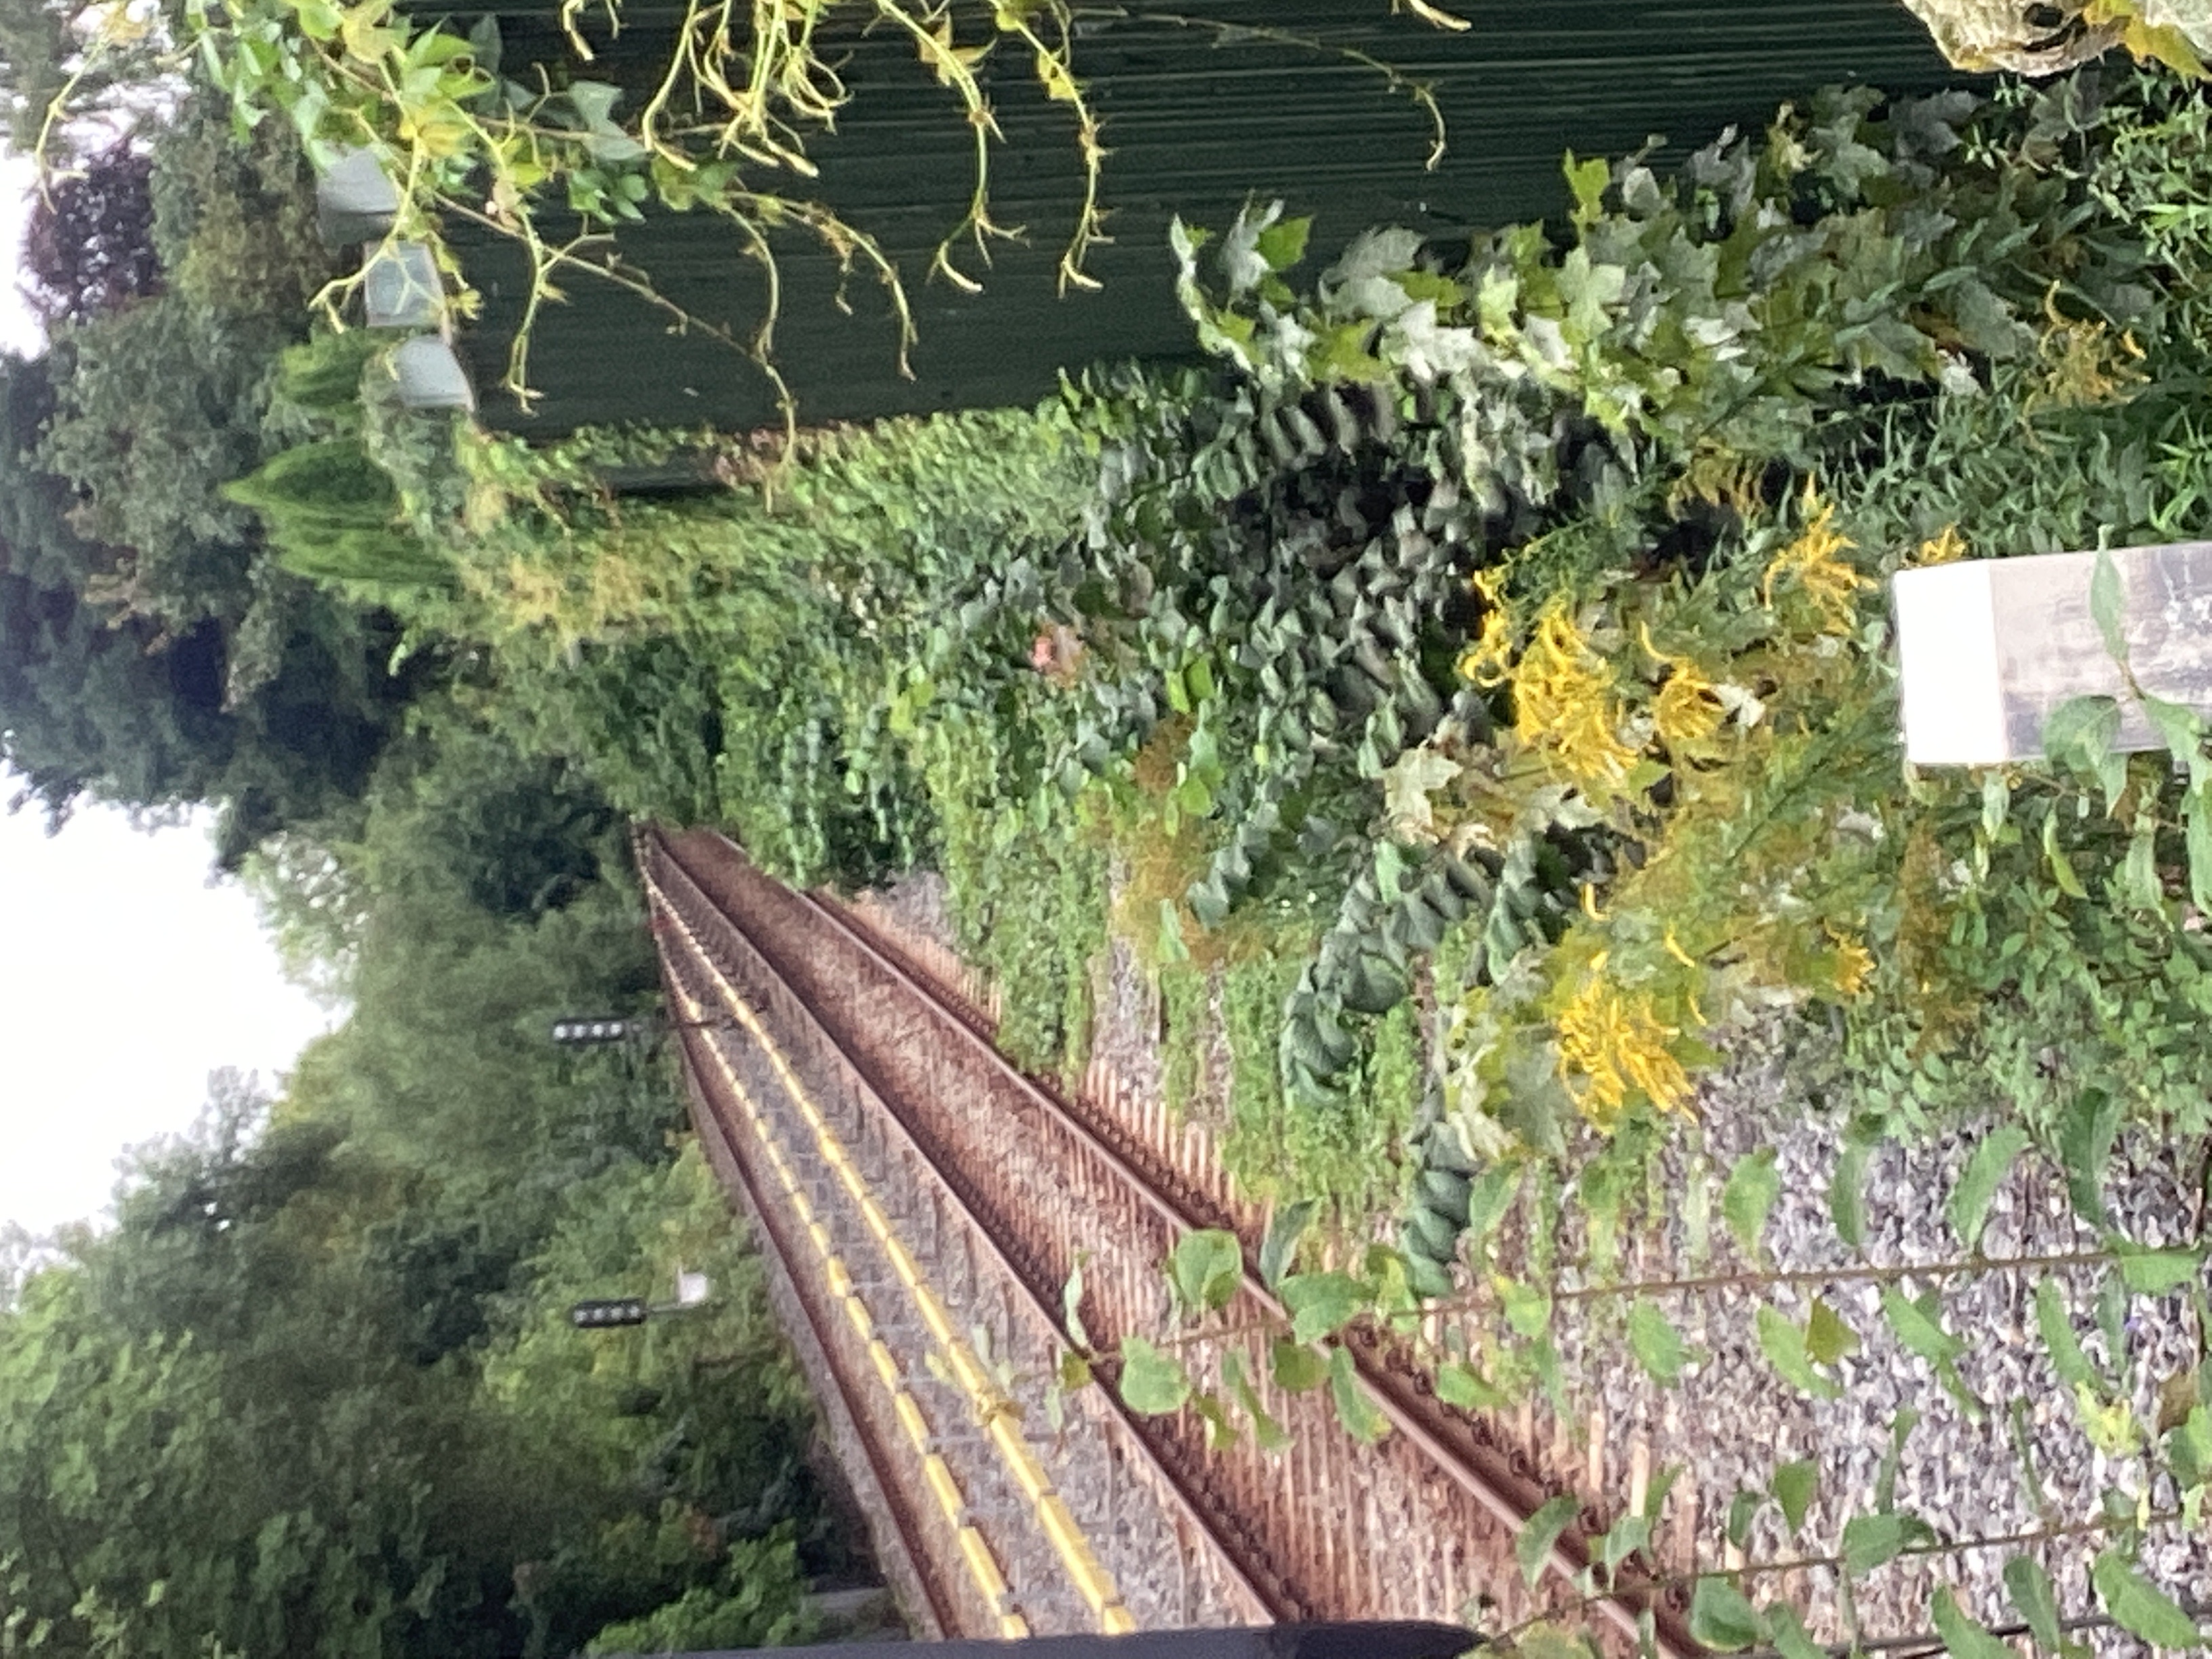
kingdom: Plantae
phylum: Tracheophyta
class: Magnoliopsida
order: Vitales
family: Vitaceae
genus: Parthenocissus
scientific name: Parthenocissus quinquefolia
